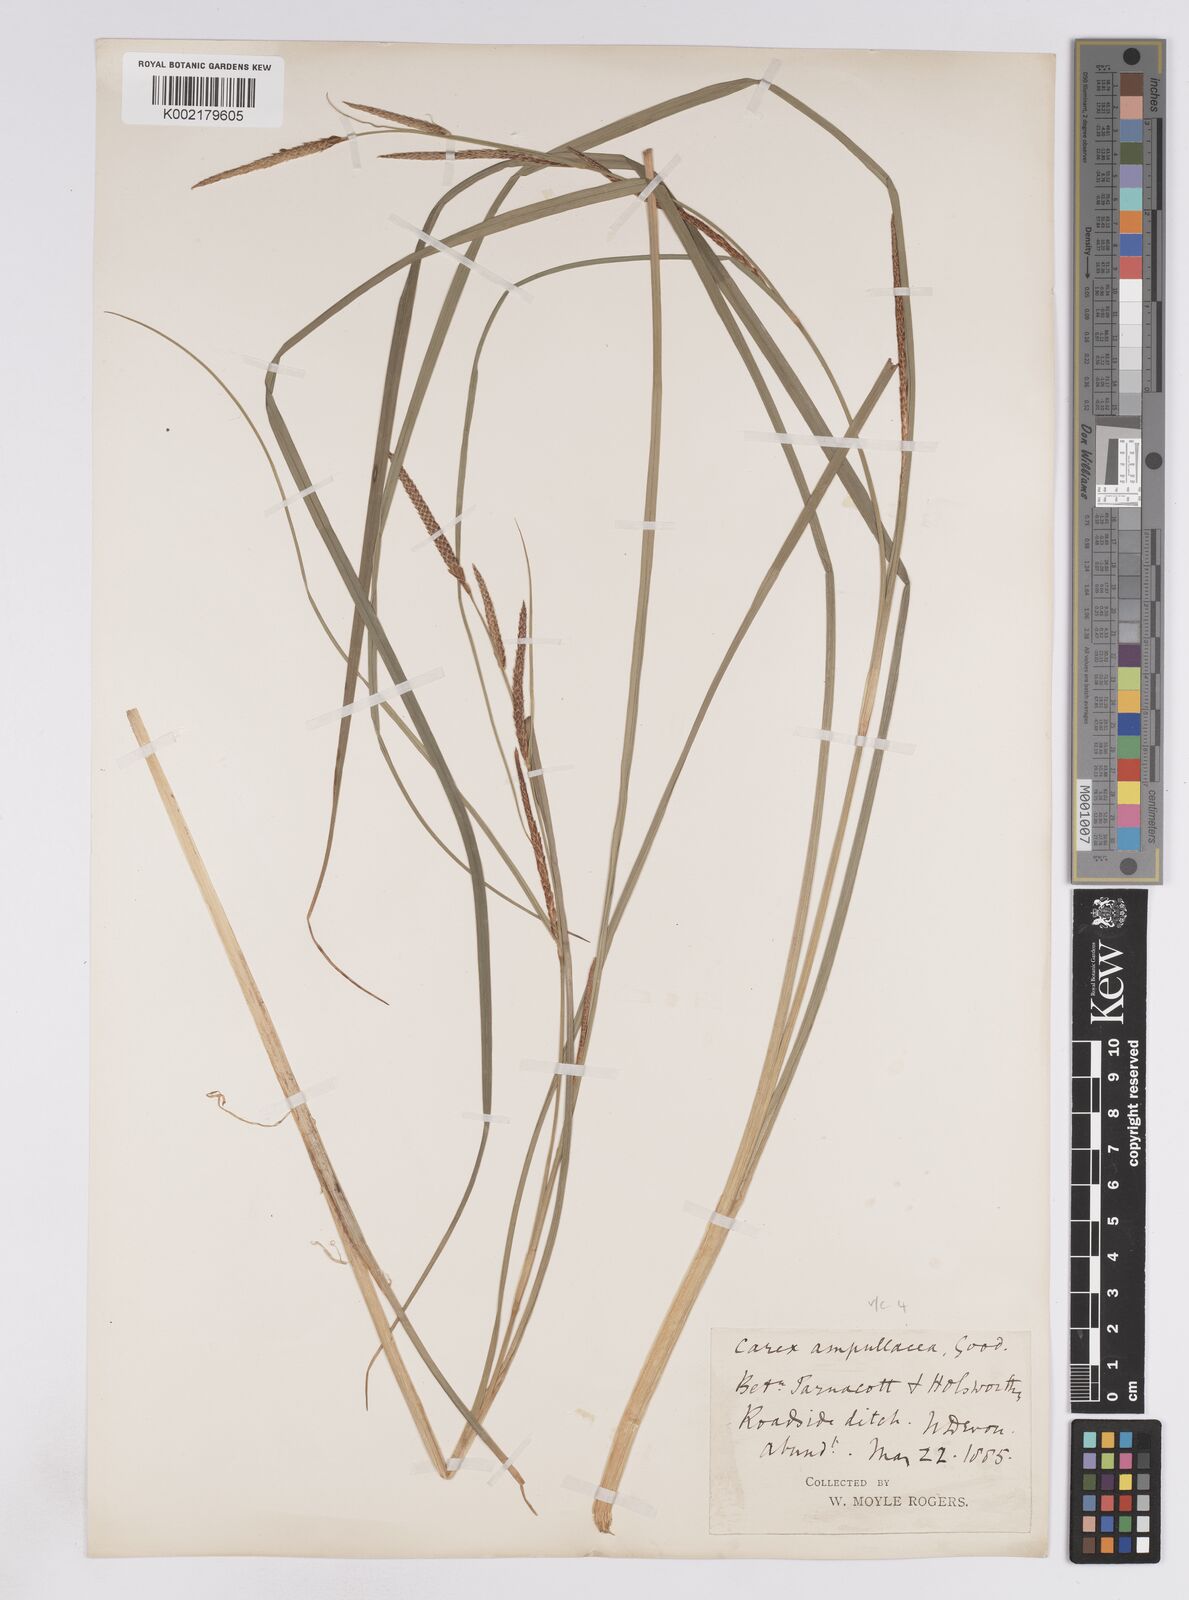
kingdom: Plantae
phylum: Tracheophyta
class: Liliopsida
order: Poales
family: Cyperaceae
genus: Carex
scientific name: Carex rostrata
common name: Bottle sedge
